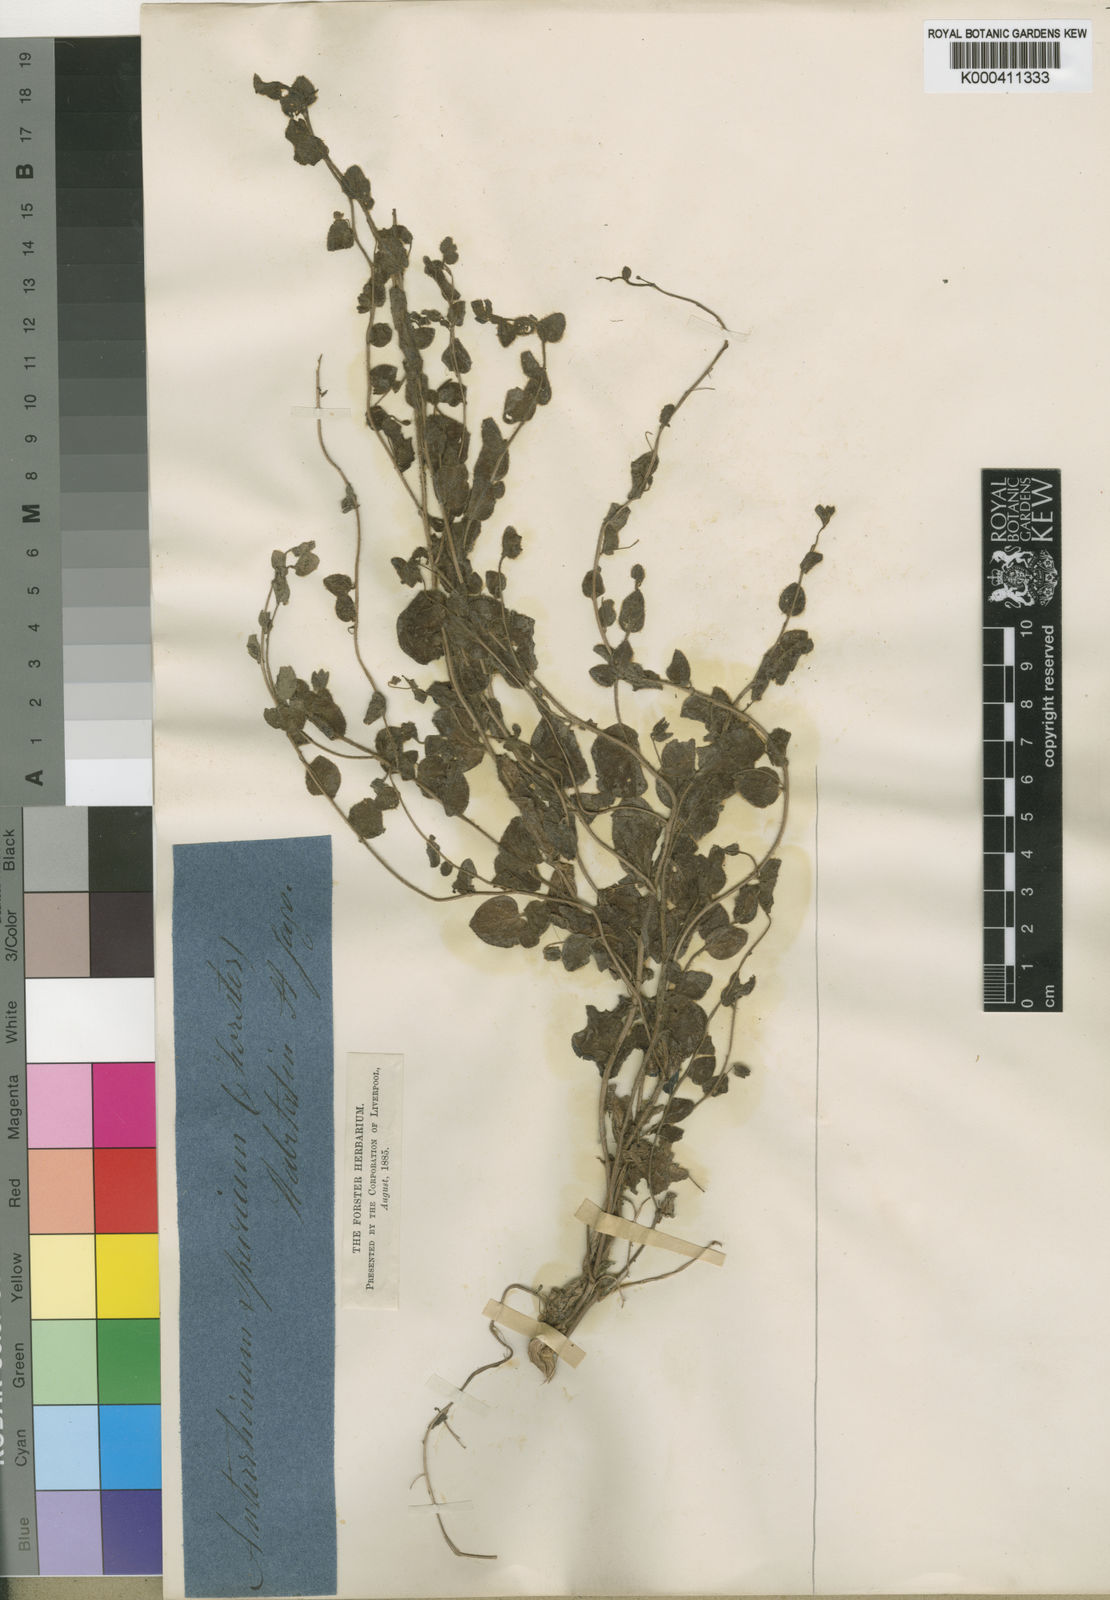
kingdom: Plantae
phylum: Tracheophyta
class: Magnoliopsida
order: Lamiales
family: Plantaginaceae
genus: Kickxia
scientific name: Kickxia spuria
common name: Round-leaved fluellen
